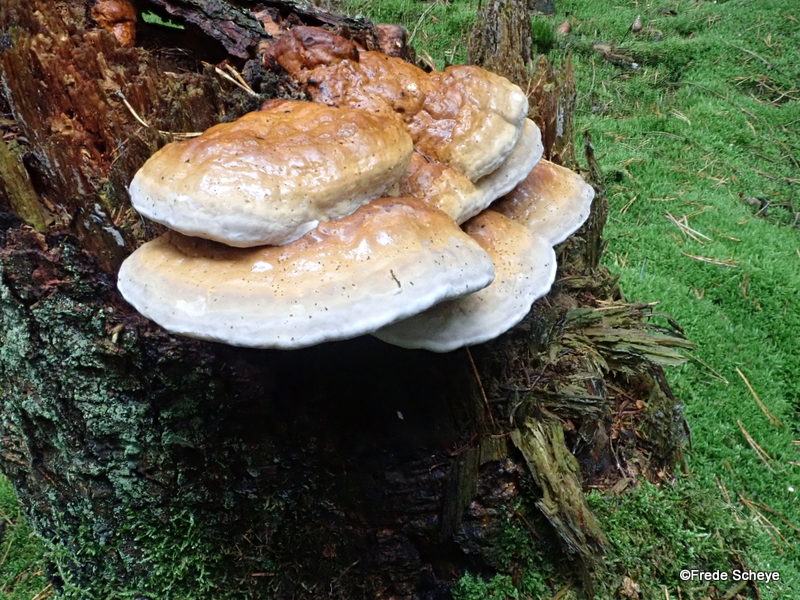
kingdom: Fungi
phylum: Basidiomycota
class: Agaricomycetes
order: Polyporales
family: Fomitopsidaceae
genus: Fomitopsis
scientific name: Fomitopsis pinicola
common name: randbæltet hovporesvamp
